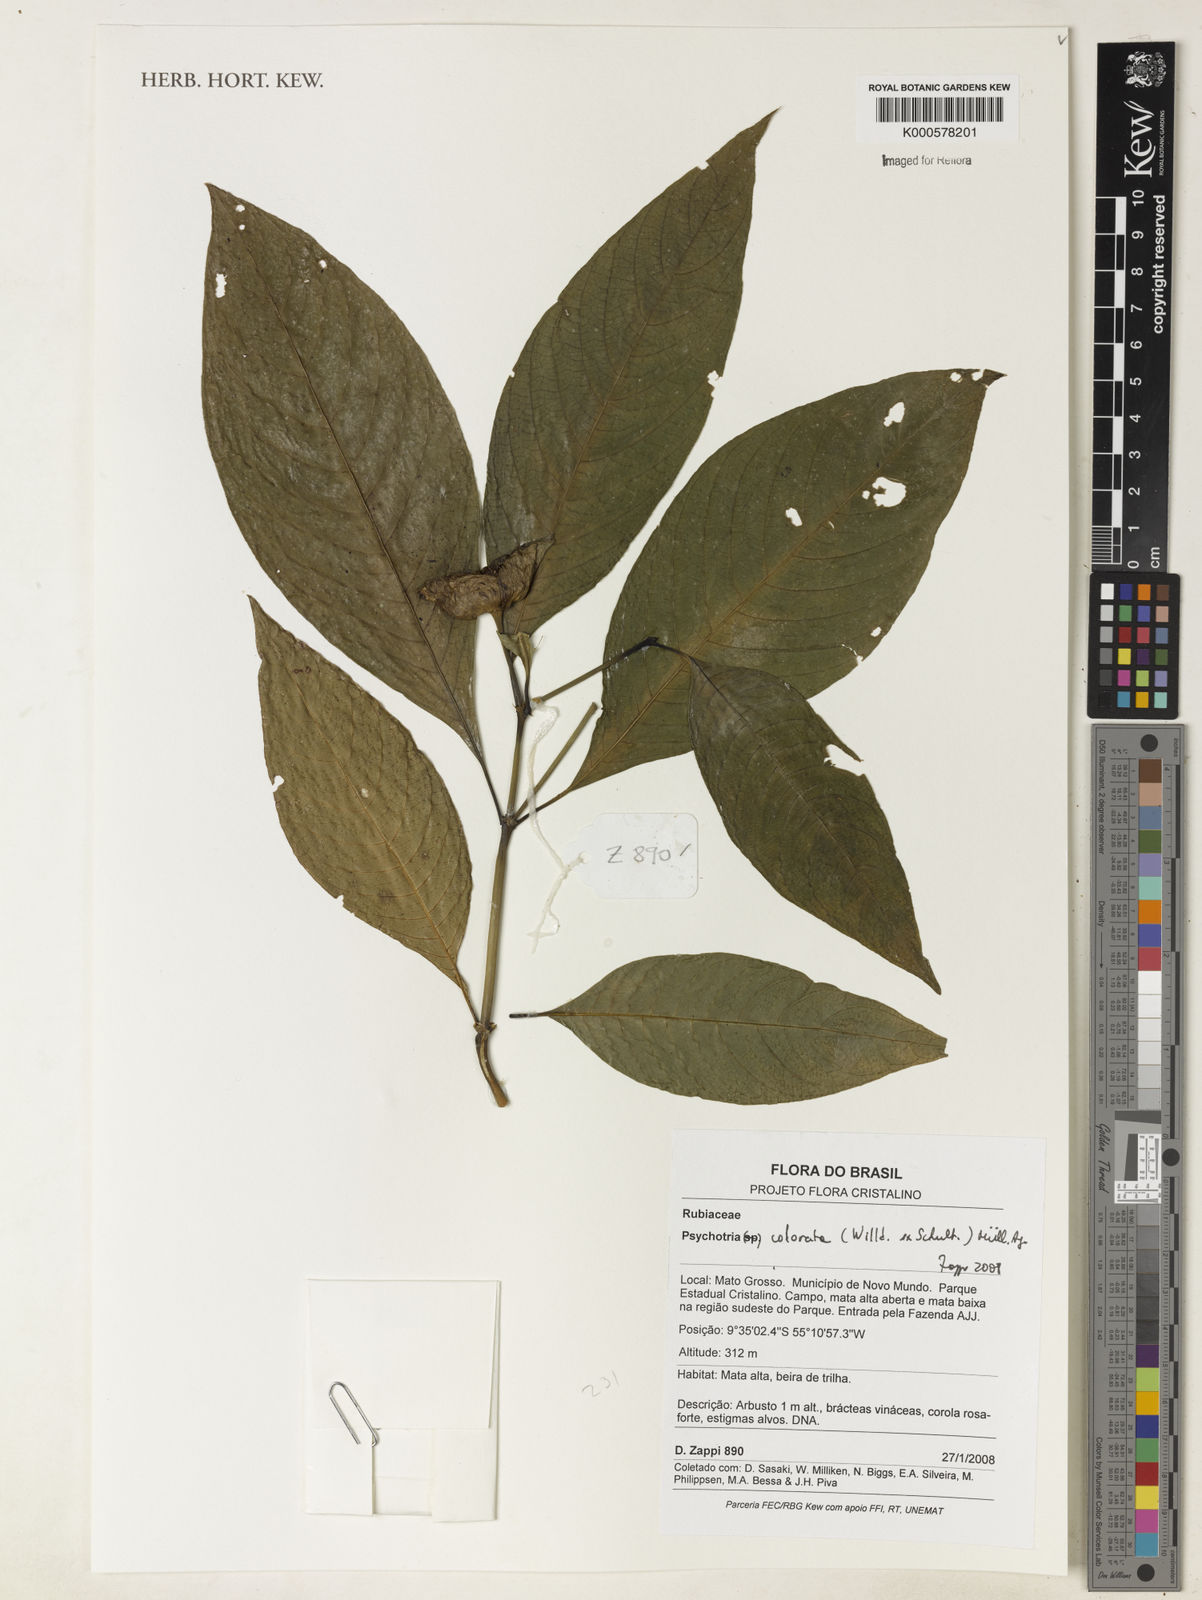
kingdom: Plantae
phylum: Tracheophyta
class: Magnoliopsida
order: Gentianales
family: Rubiaceae
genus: Psychotria
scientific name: Psychotria
